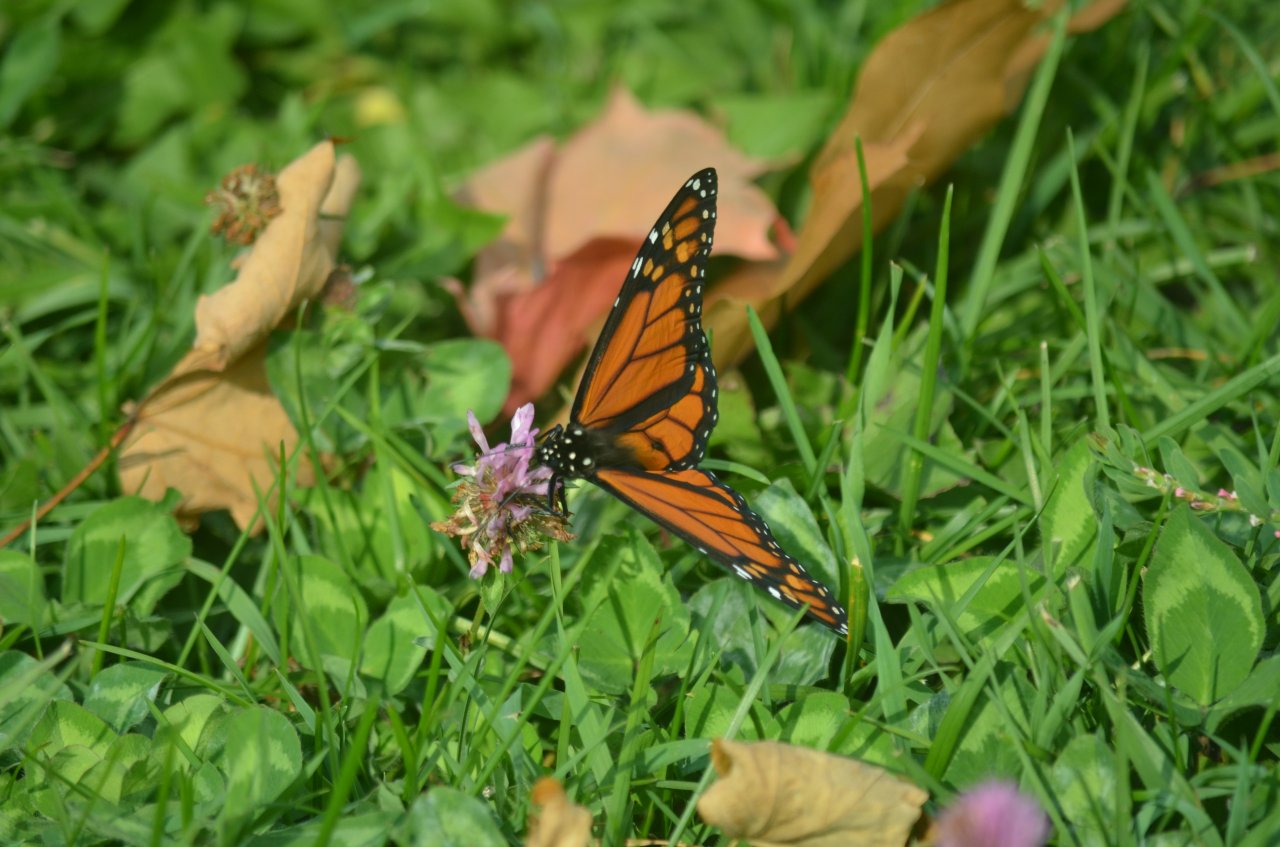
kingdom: Animalia
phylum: Arthropoda
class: Insecta
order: Lepidoptera
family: Nymphalidae
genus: Danaus
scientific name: Danaus plexippus
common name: Monarch
